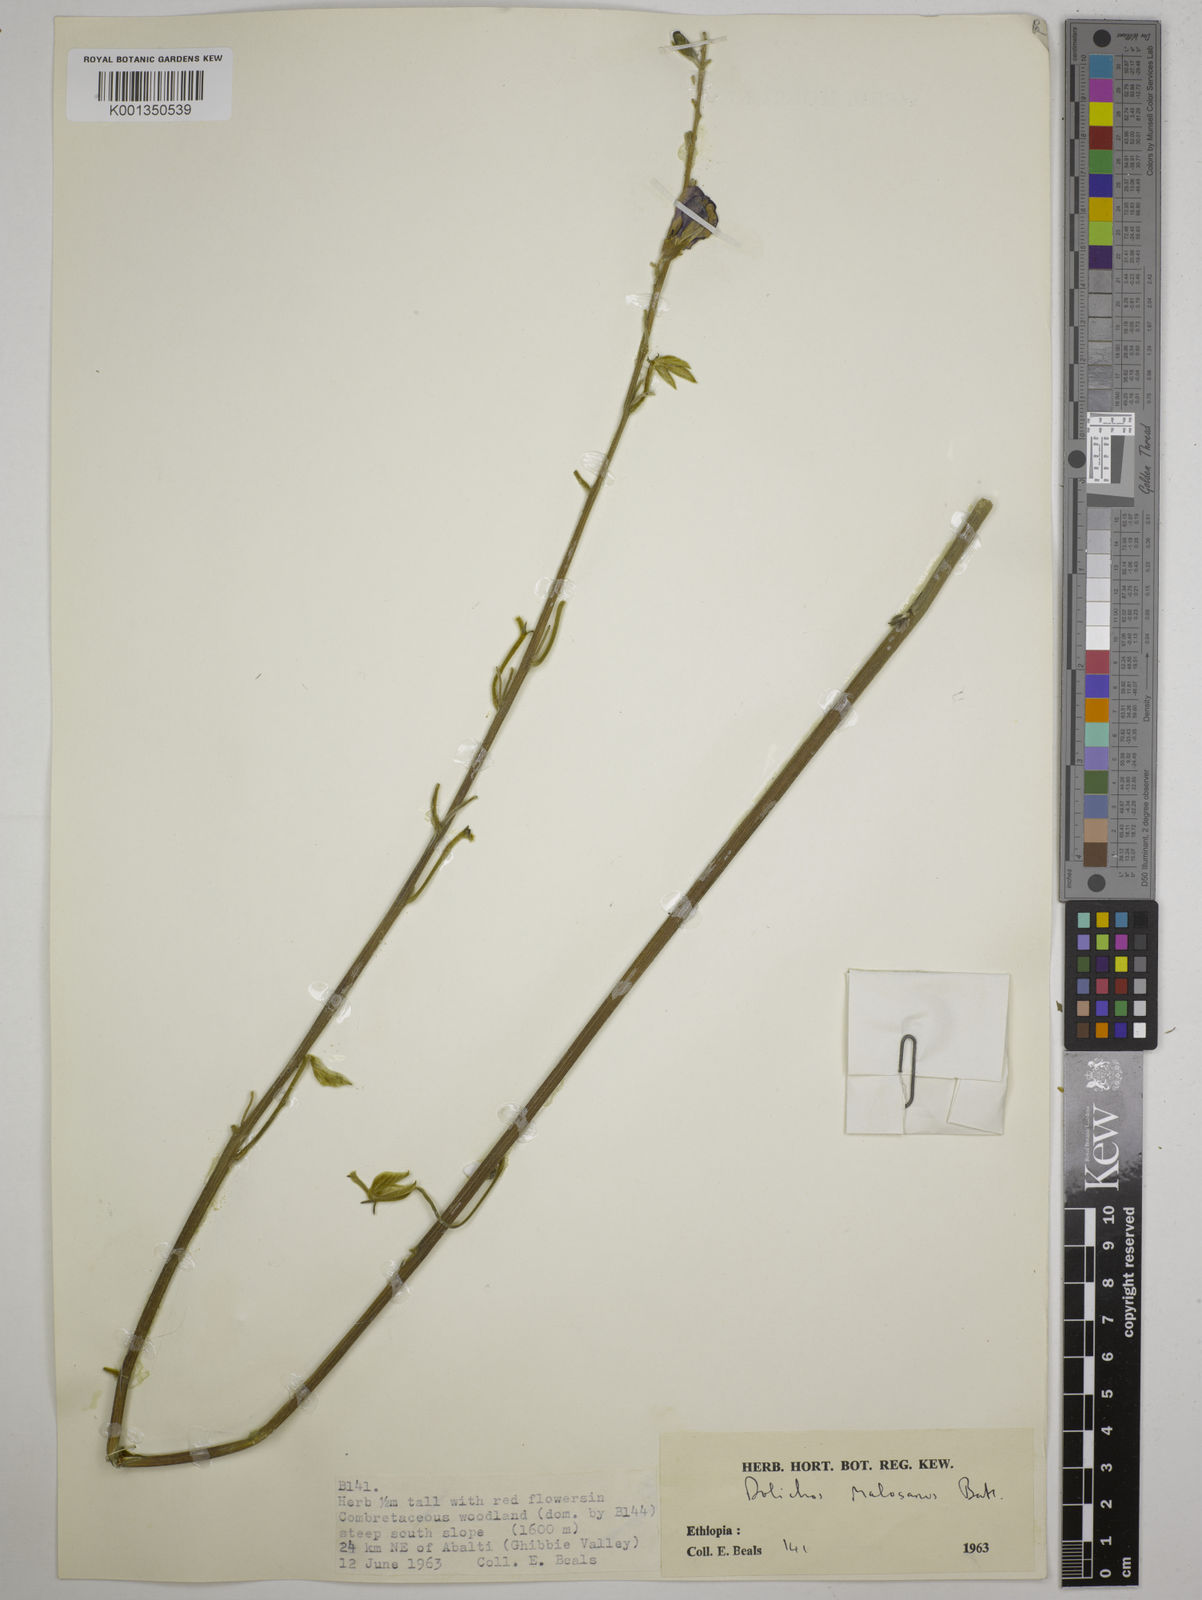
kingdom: Plantae
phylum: Tracheophyta
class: Magnoliopsida
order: Fabales
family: Fabaceae
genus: Dolichos
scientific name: Dolichos kilimandscharicus
